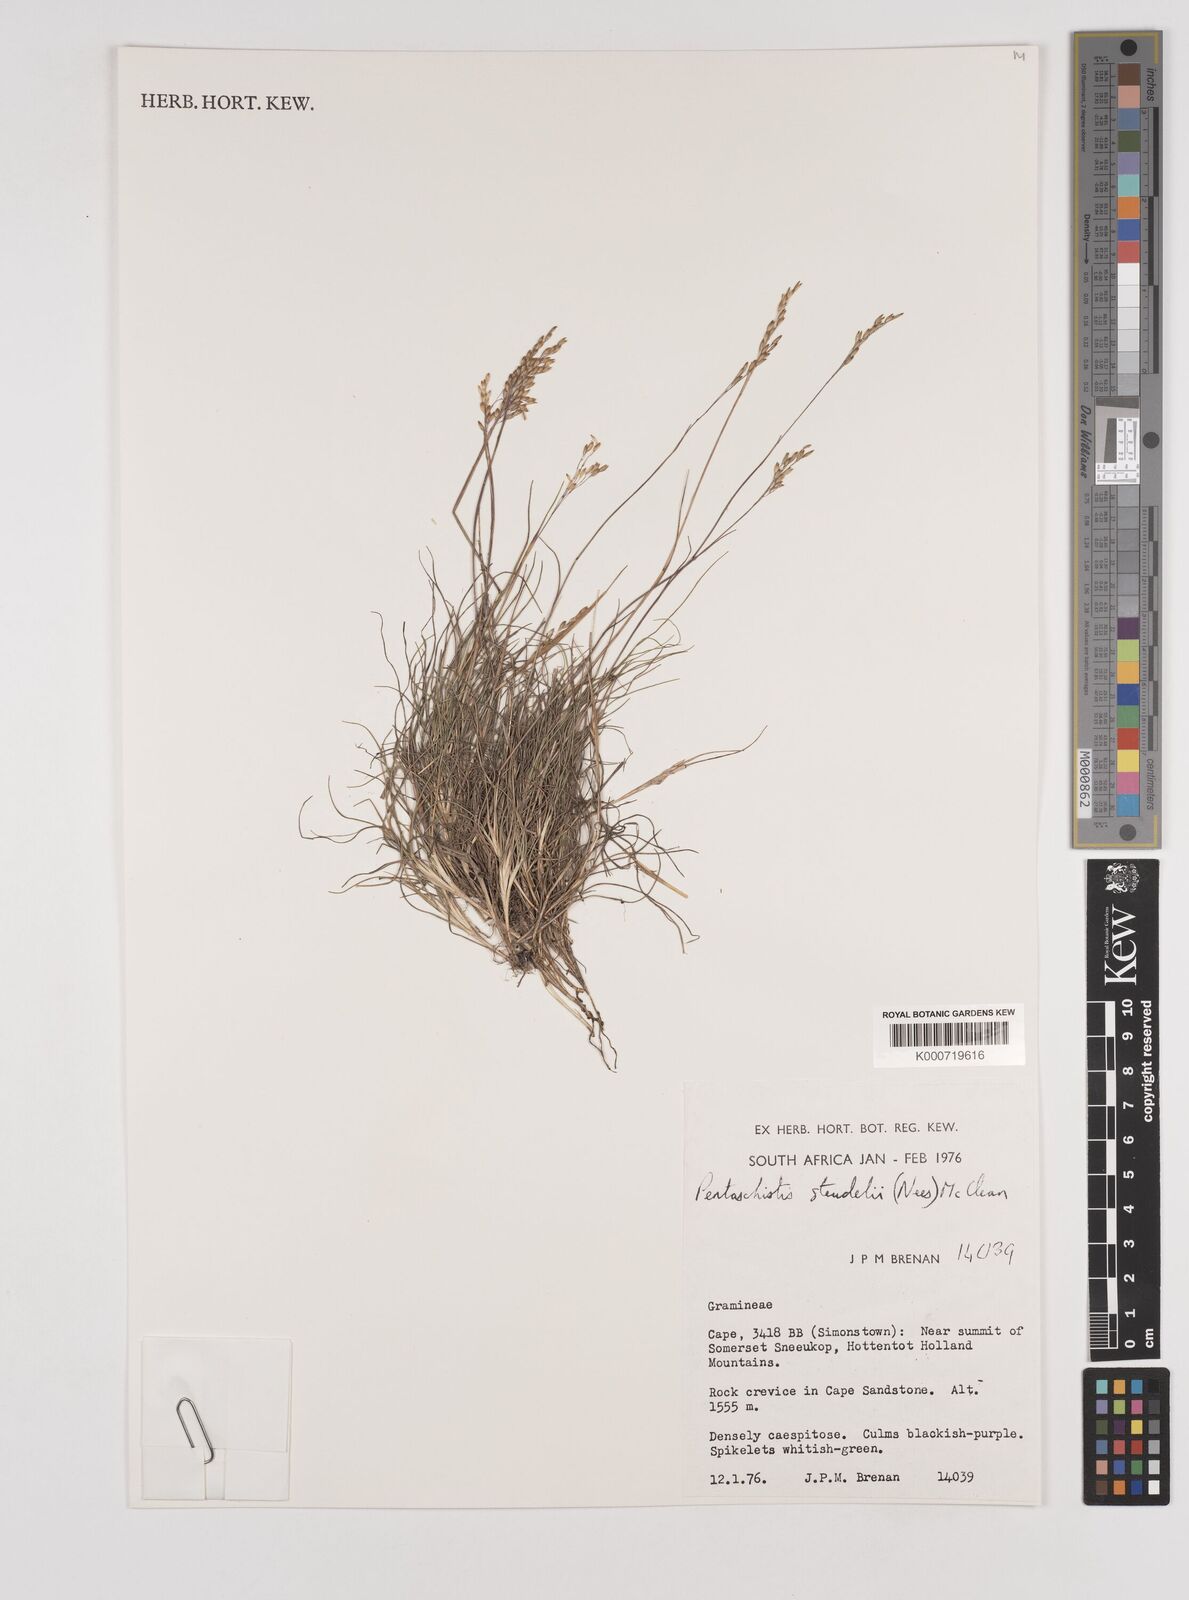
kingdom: Plantae
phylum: Tracheophyta
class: Liliopsida
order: Poales
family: Poaceae
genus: Pentameris
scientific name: Pentameris malouinensis
